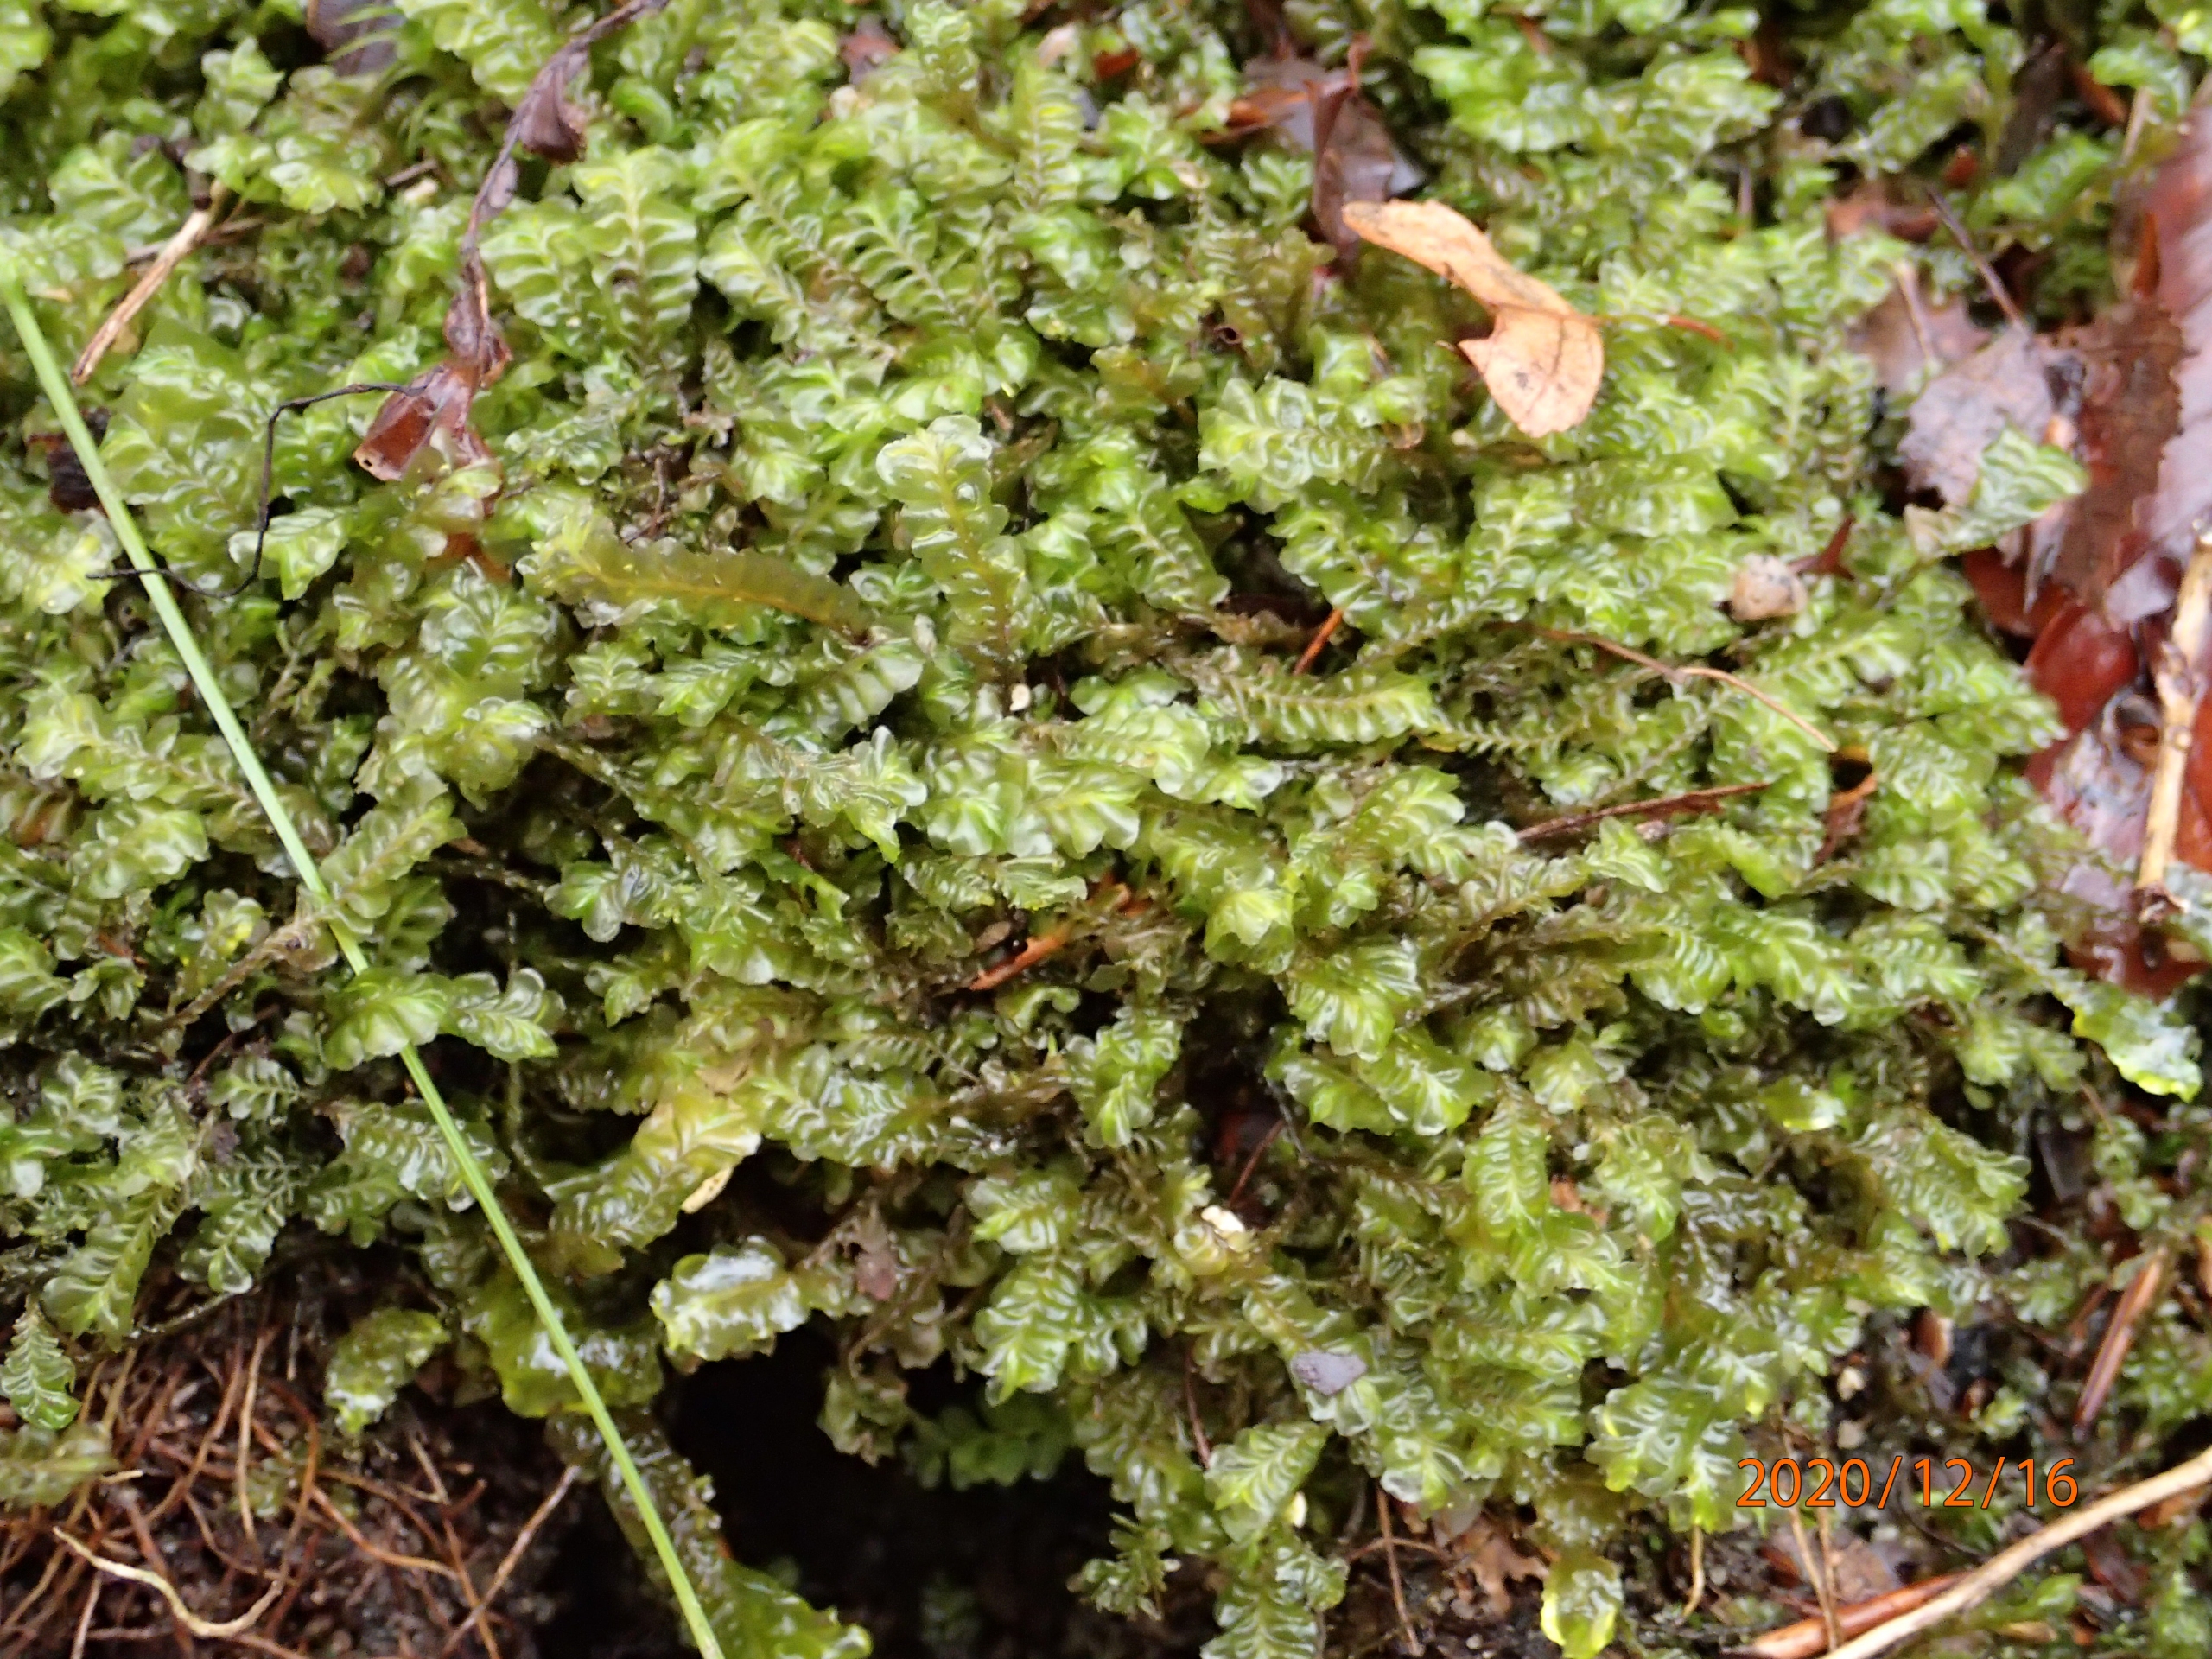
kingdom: Plantae
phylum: Marchantiophyta
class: Jungermanniopsida
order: Jungermanniales
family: Plagiochilaceae
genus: Plagiochila
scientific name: Plagiochila asplenioides
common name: Radeløv-hindeblad
